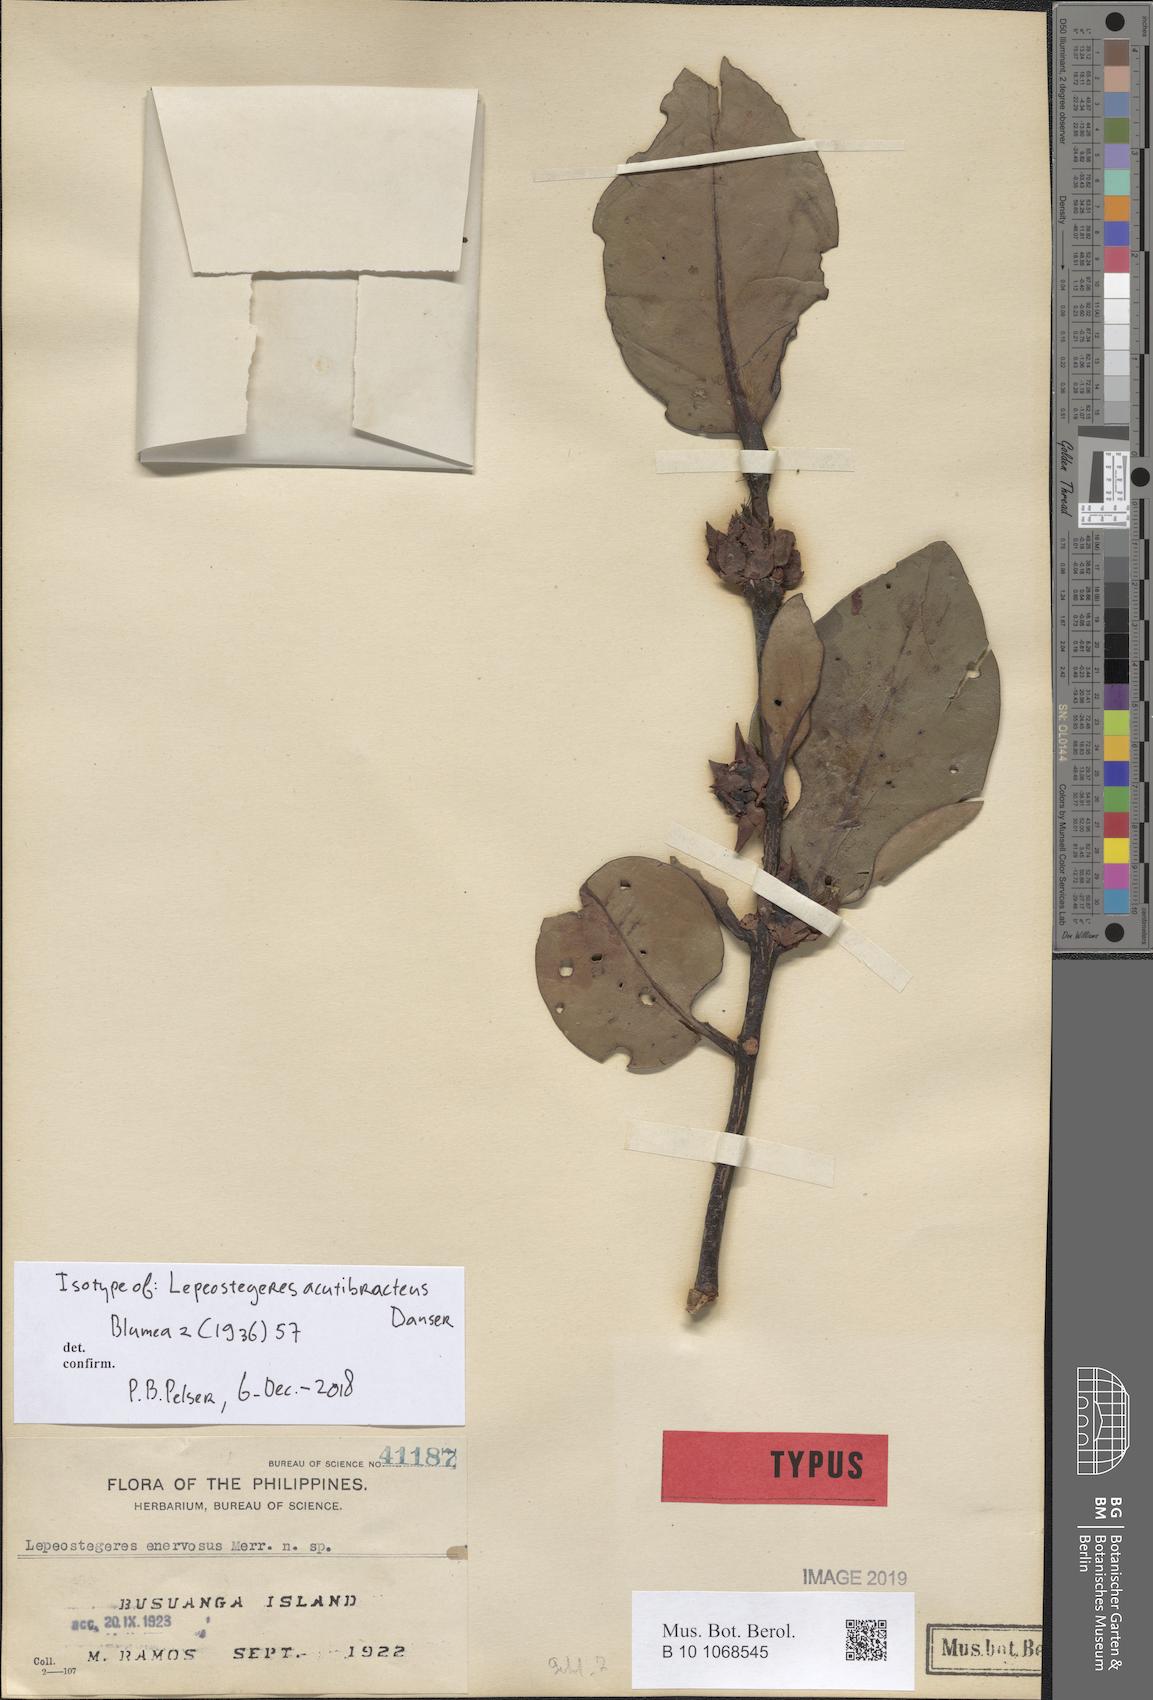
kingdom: Plantae
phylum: Tracheophyta
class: Magnoliopsida
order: Santalales
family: Loranthaceae
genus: Lepeostegeres
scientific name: Lepeostegeres acutibracteus
